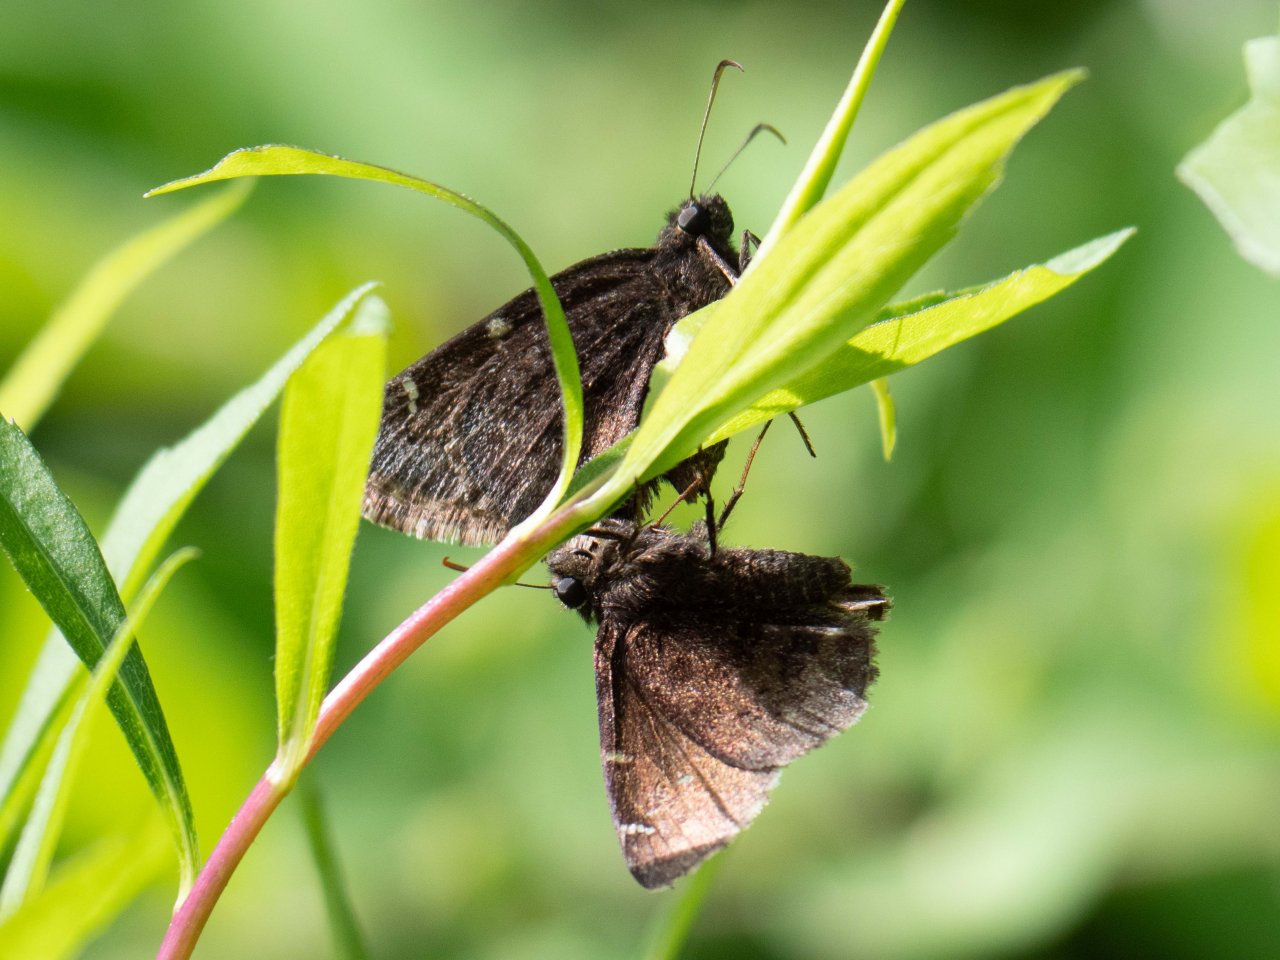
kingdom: Animalia
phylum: Arthropoda
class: Insecta
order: Lepidoptera
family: Hesperiidae
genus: Autochton
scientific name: Autochton
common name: Northern Cloudywing
